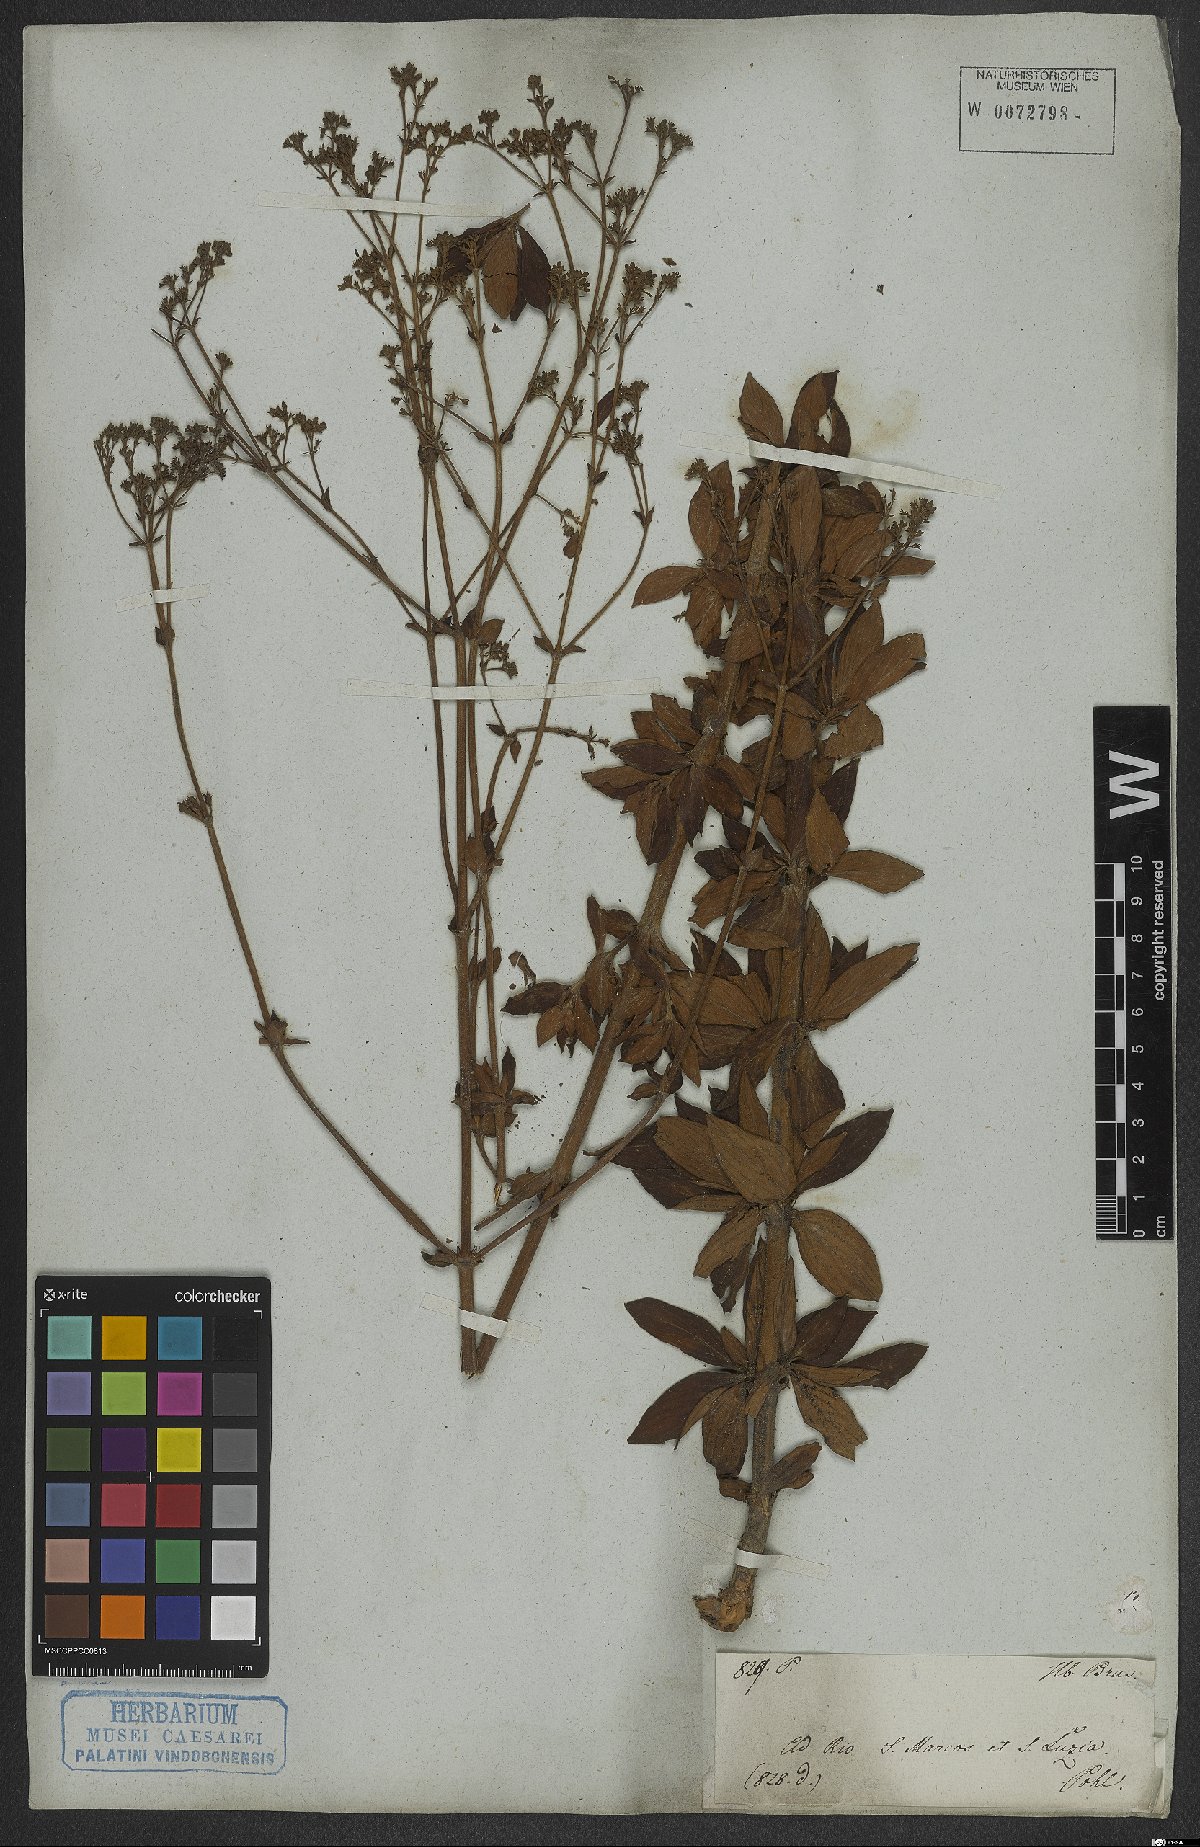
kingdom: Plantae
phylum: Tracheophyta
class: Magnoliopsida
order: Gentianales
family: Rubiaceae
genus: Spermacoce
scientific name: Spermacoce
